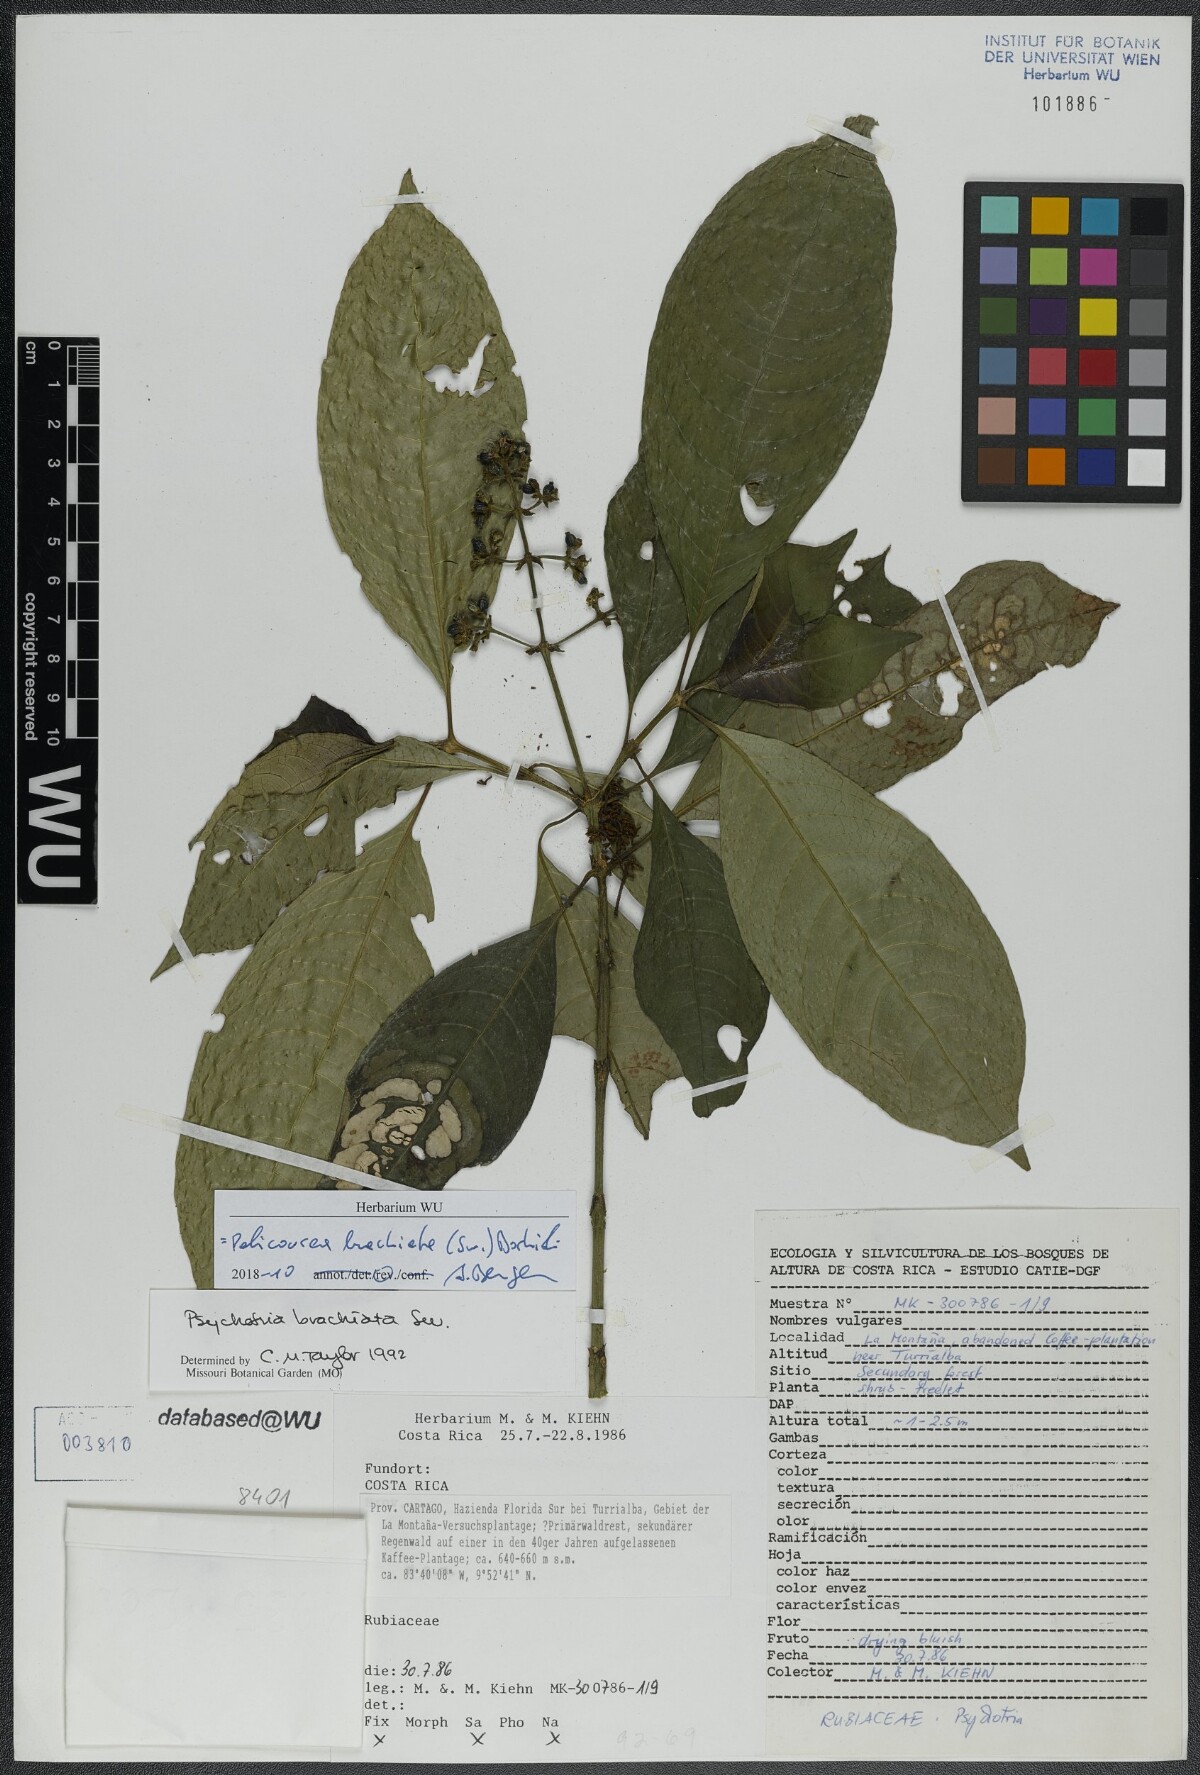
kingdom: Plantae
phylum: Tracheophyta
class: Magnoliopsida
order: Gentianales
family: Rubiaceae
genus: Palicourea
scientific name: Palicourea brachiata
